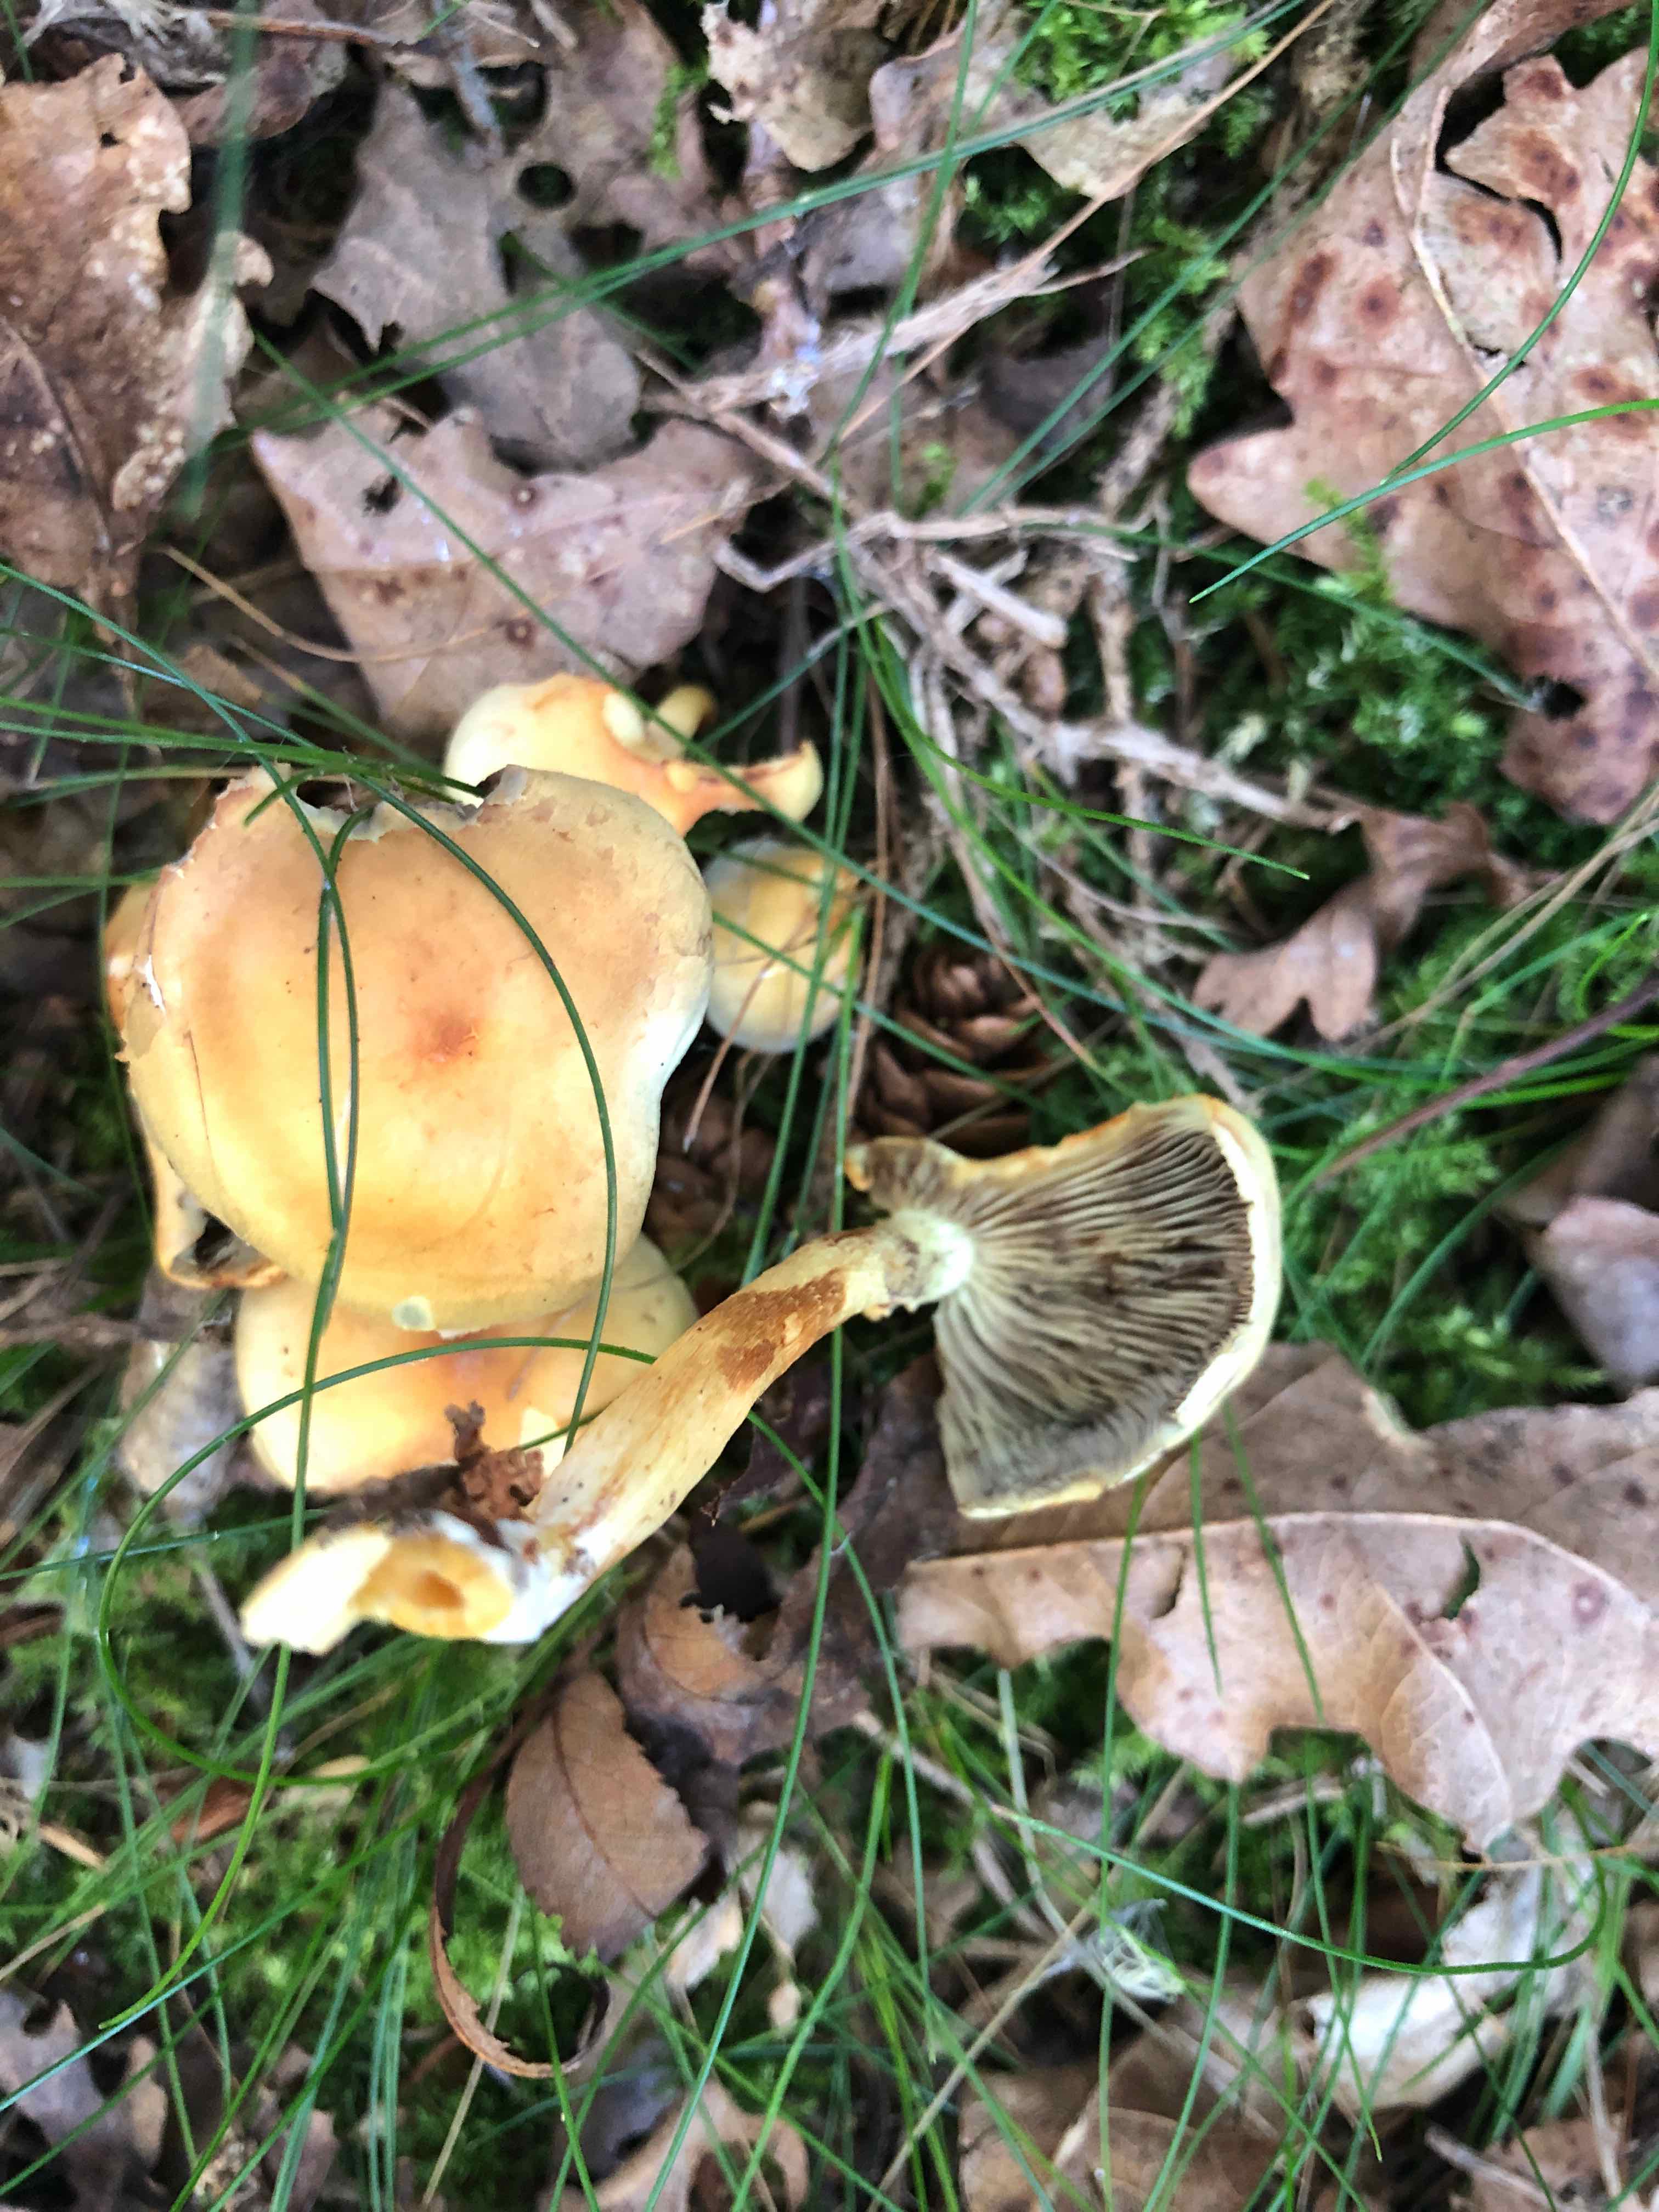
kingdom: Fungi
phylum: Basidiomycota
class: Agaricomycetes
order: Agaricales
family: Strophariaceae
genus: Hypholoma
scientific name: Hypholoma fasciculare
